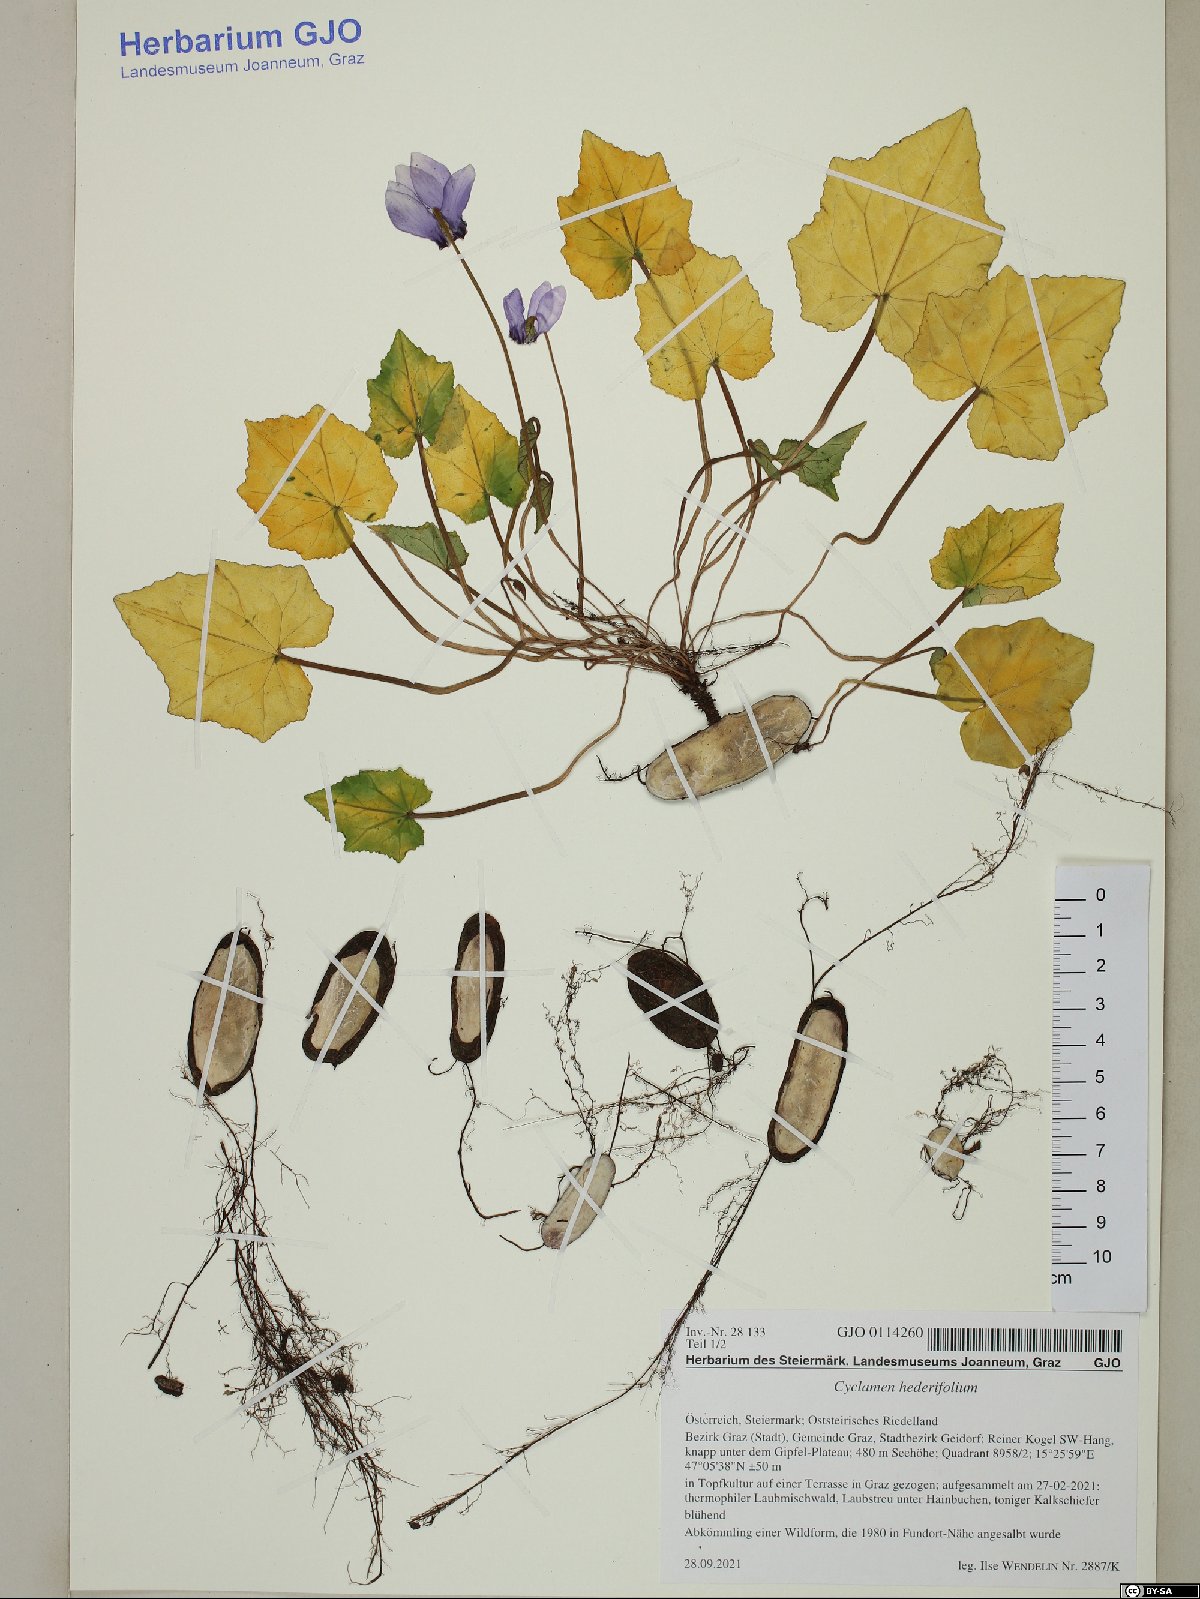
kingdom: Plantae
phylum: Tracheophyta
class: Magnoliopsida
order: Ericales
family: Primulaceae
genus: Cyclamen
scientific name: Cyclamen hederifolium
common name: Sowbread
